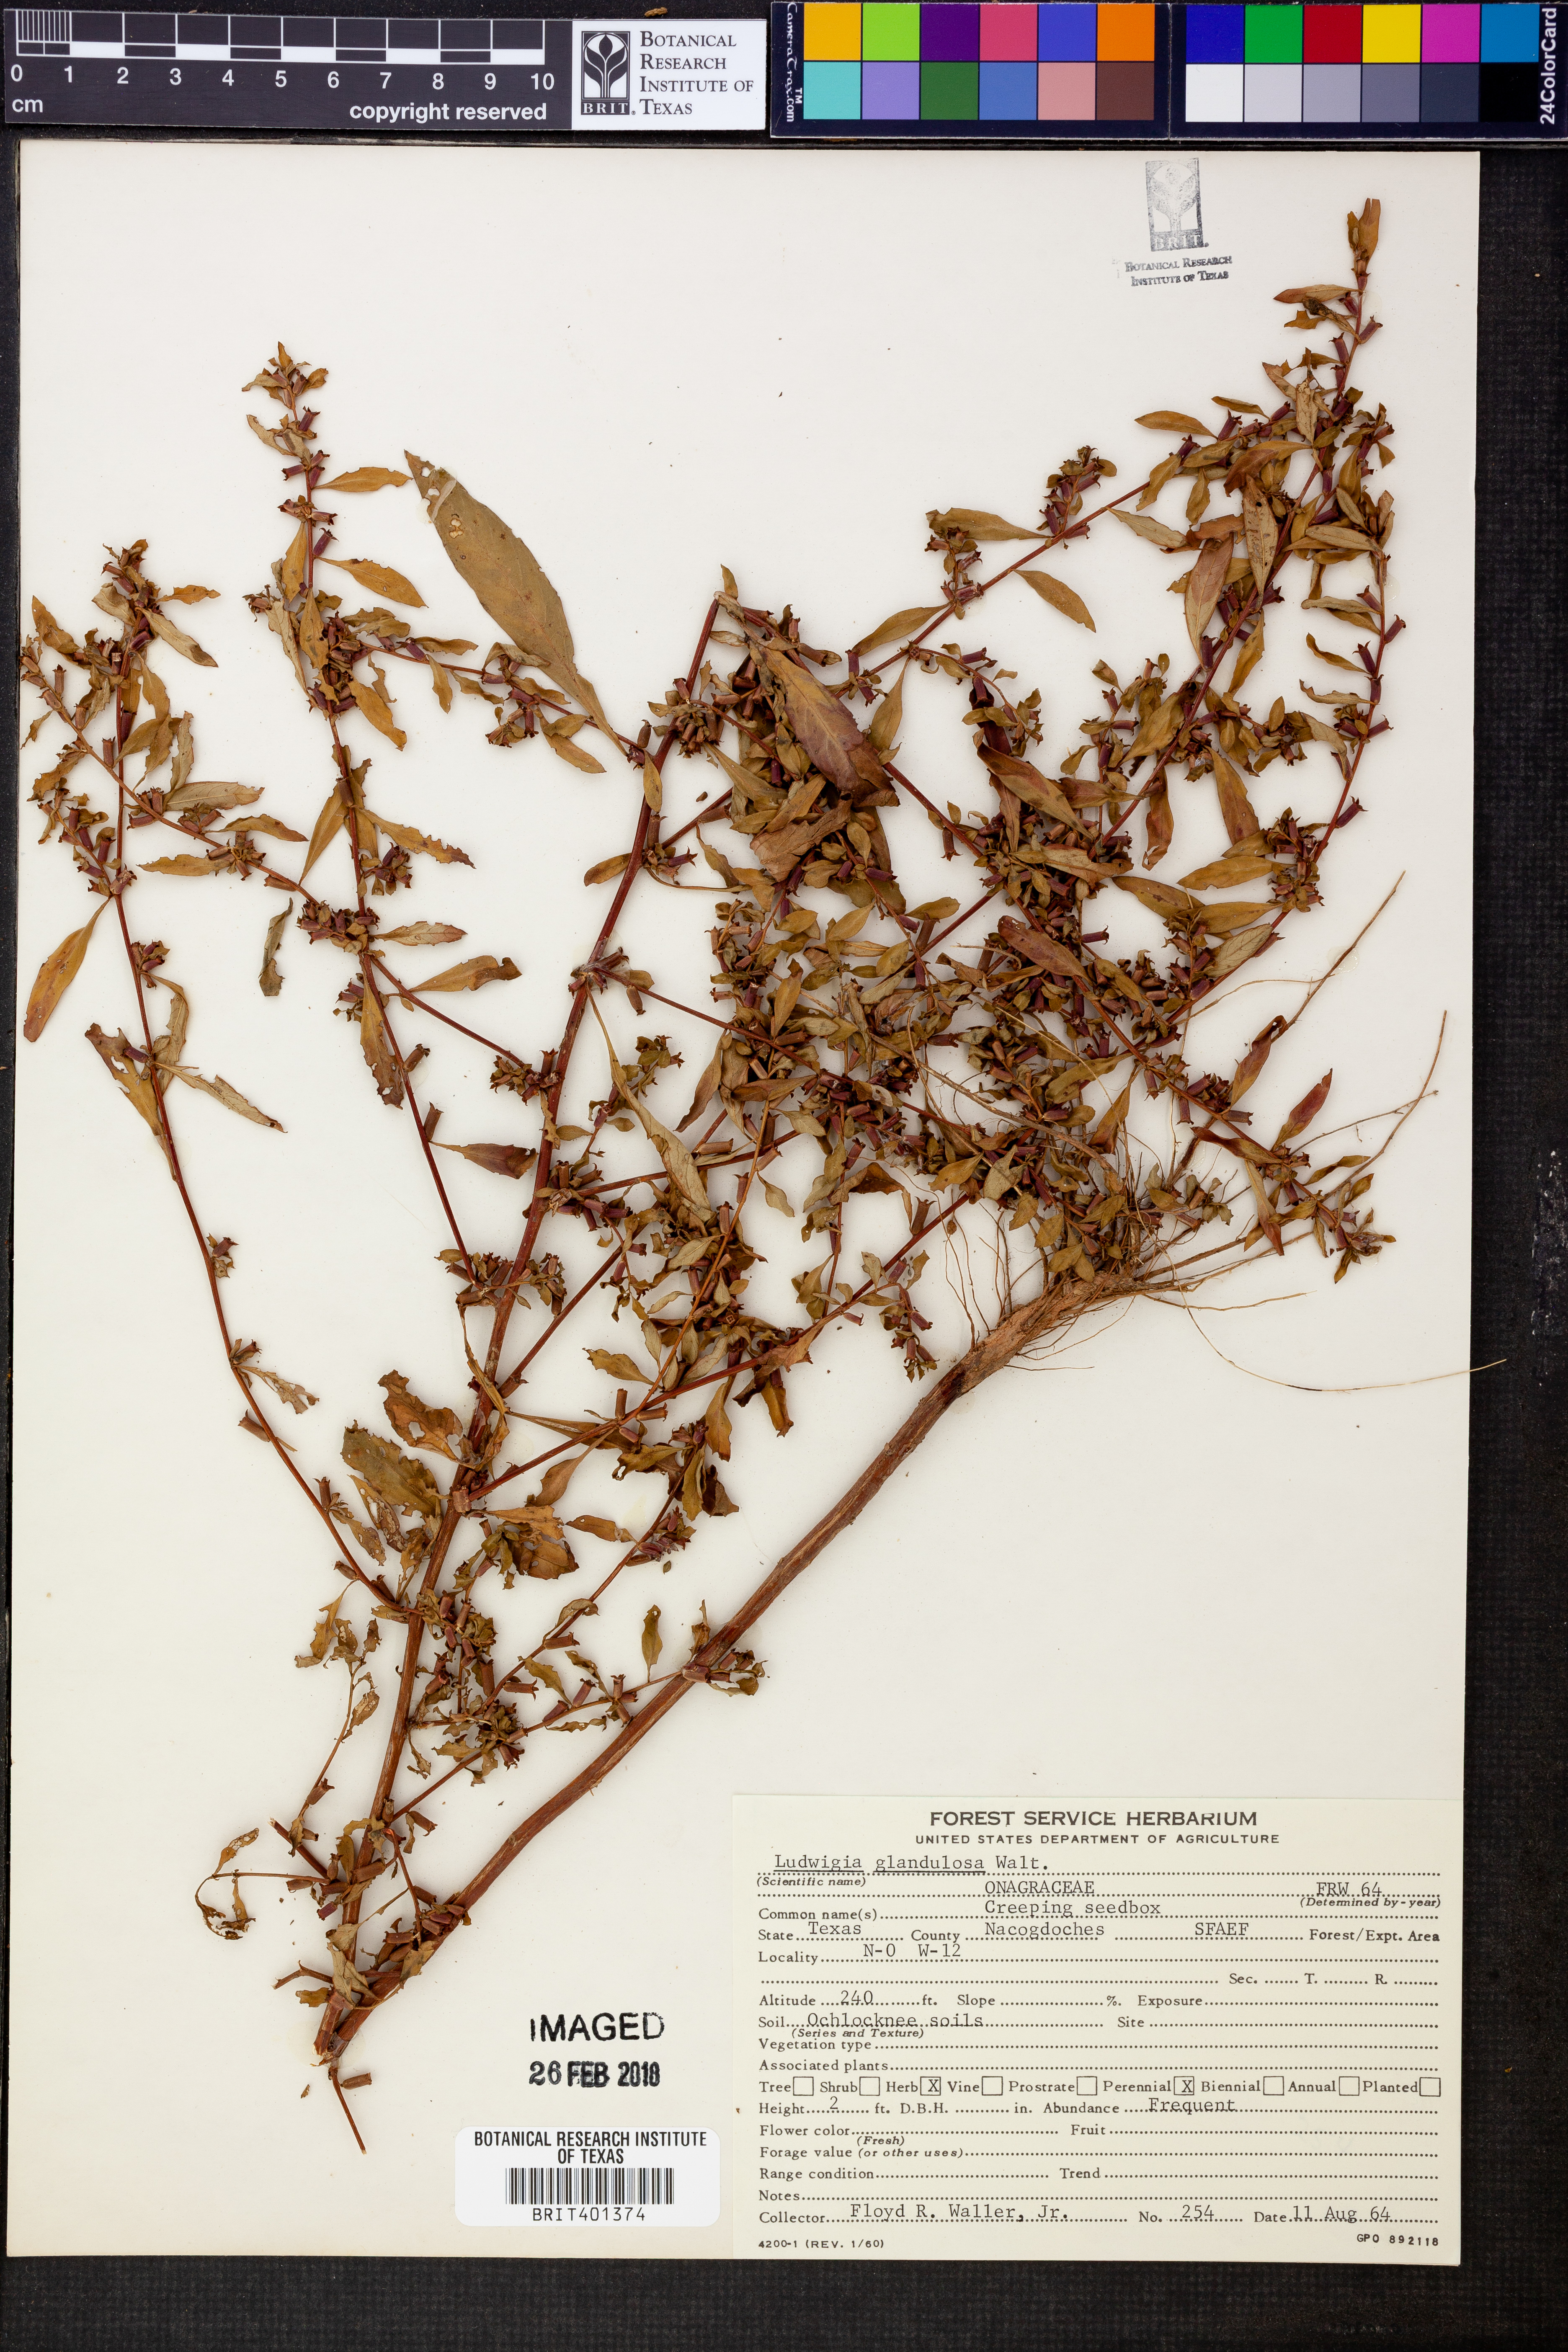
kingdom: Plantae
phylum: Tracheophyta
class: Magnoliopsida
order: Myrtales
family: Onagraceae
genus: Ludwigia
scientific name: Ludwigia glandulosa
